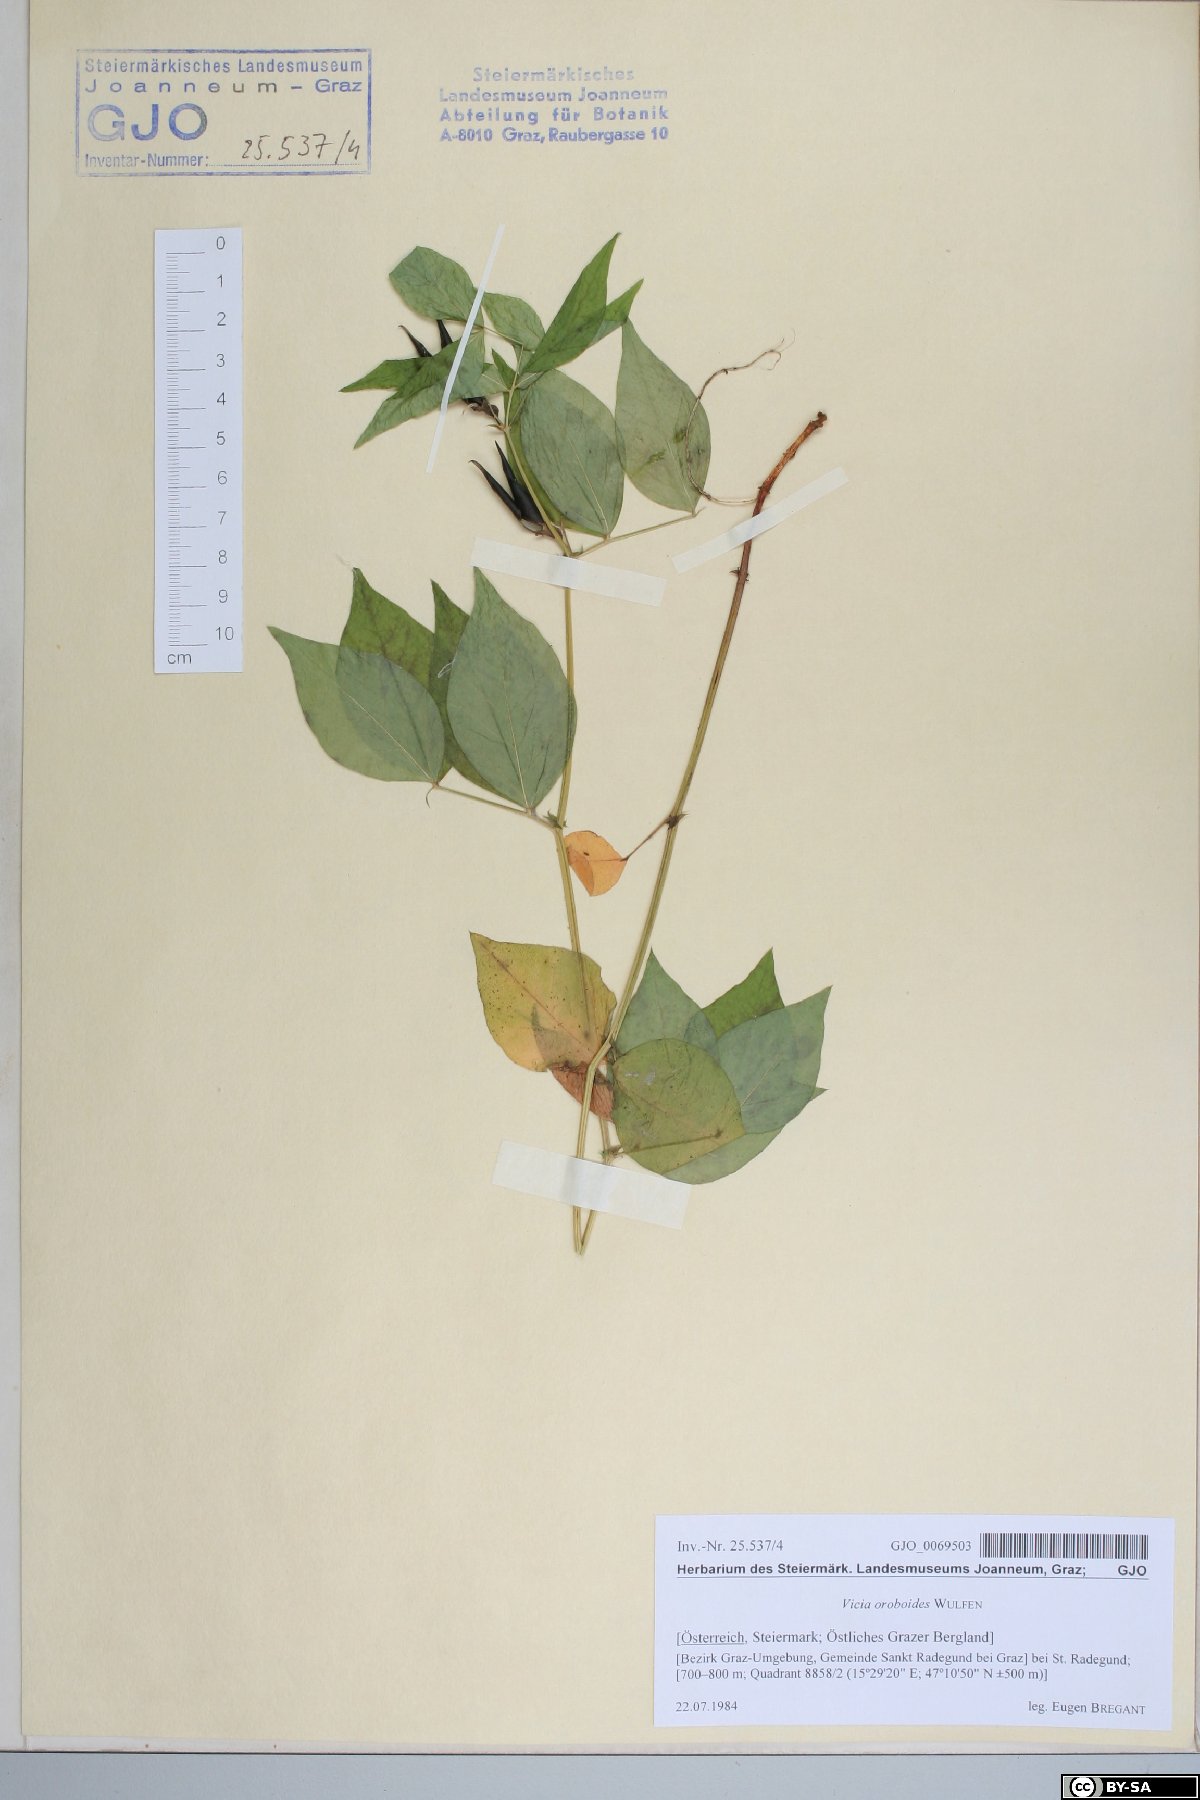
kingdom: Plantae
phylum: Tracheophyta
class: Magnoliopsida
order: Fabales
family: Fabaceae
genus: Vicia
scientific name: Vicia oroboides
